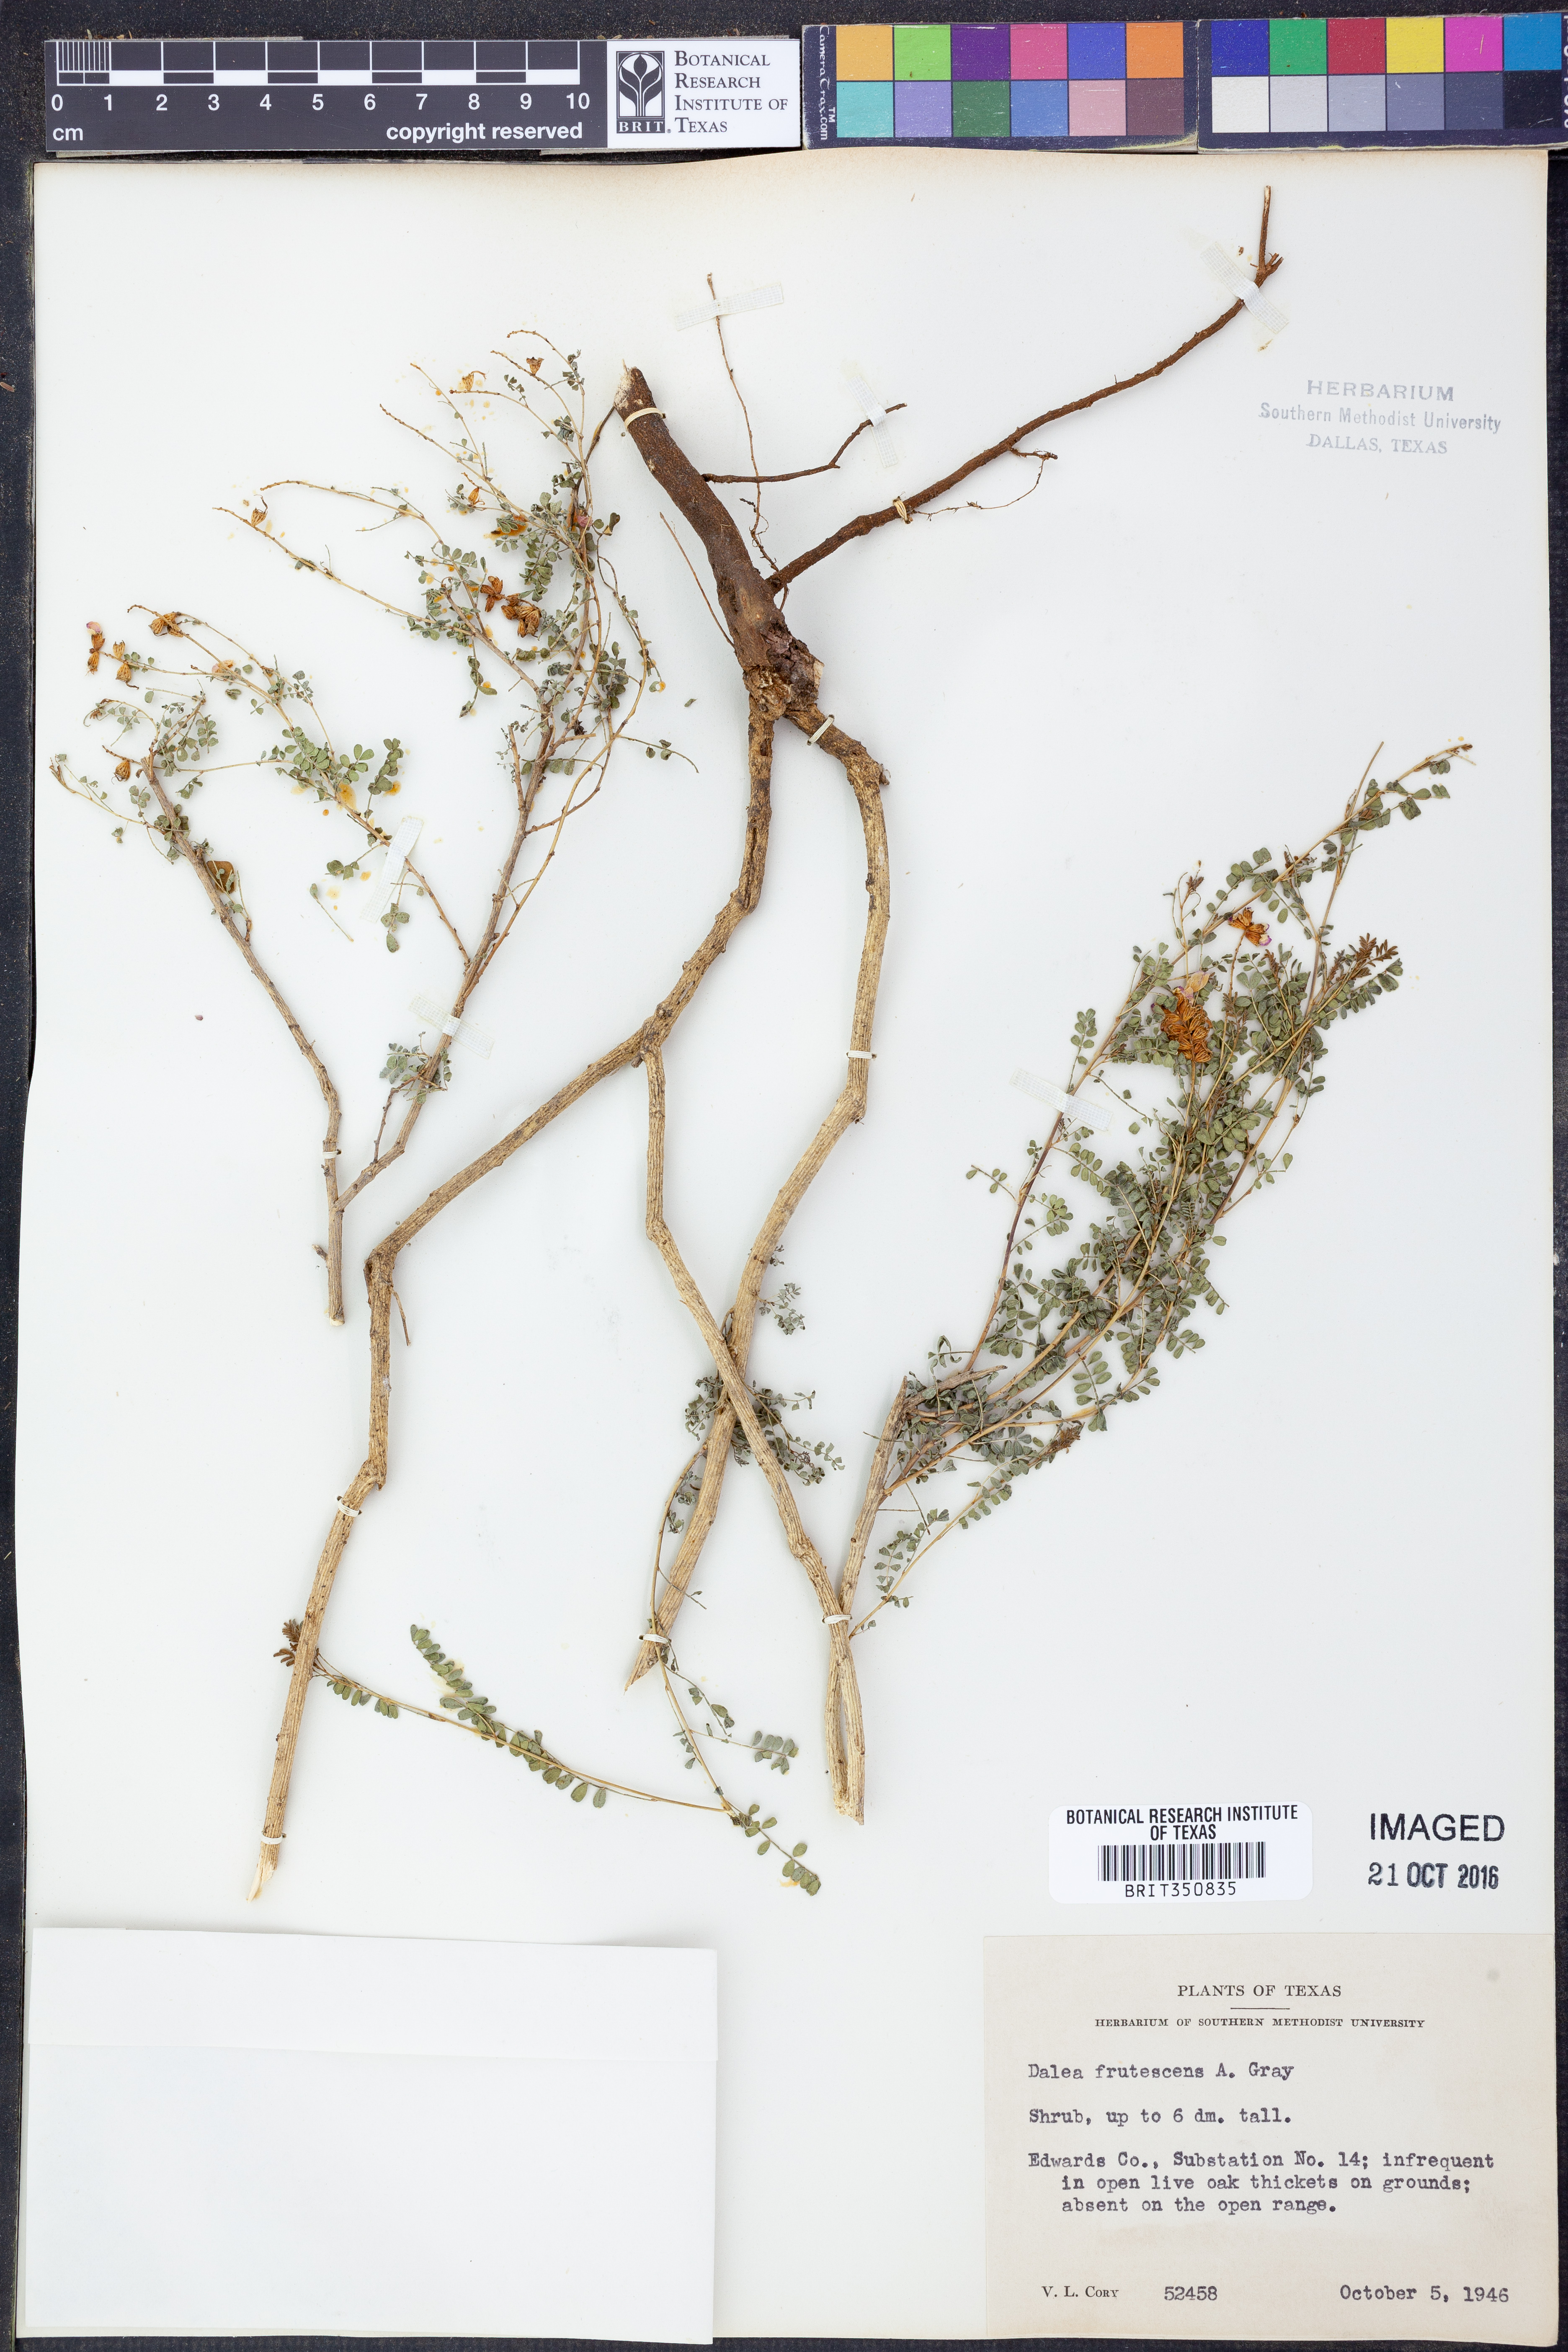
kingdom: Plantae
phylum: Tracheophyta
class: Magnoliopsida
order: Fabales
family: Fabaceae
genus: Dalea
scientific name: Dalea frutescens
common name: Black dalea
